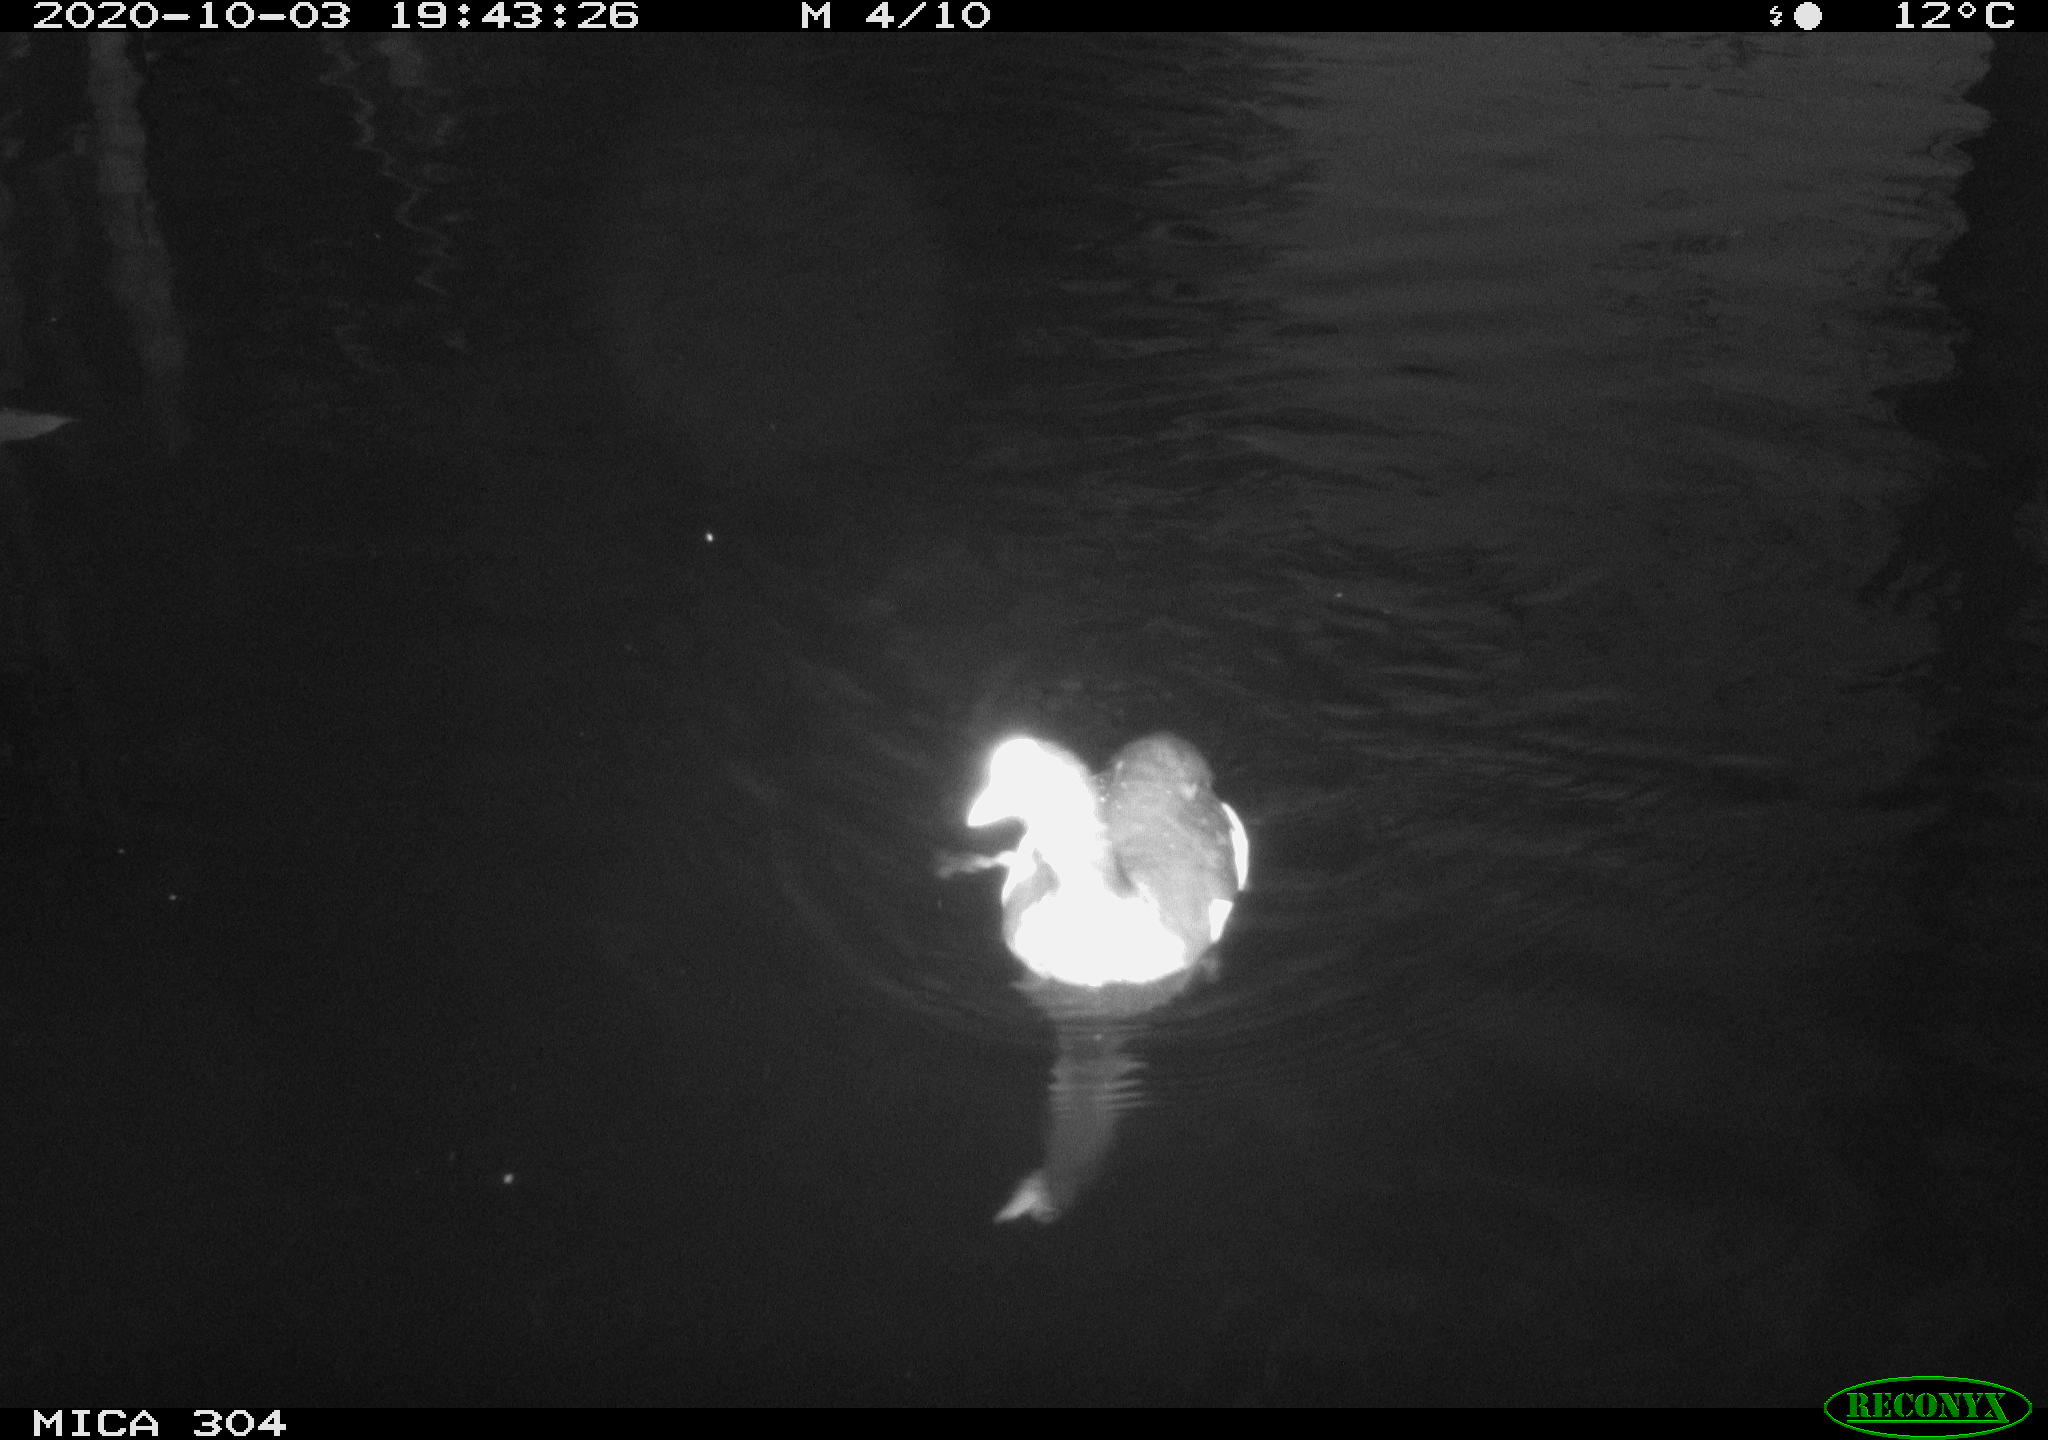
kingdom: Animalia
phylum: Chordata
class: Aves
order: Anseriformes
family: Anatidae
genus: Mareca
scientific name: Mareca strepera
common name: Gadwall
